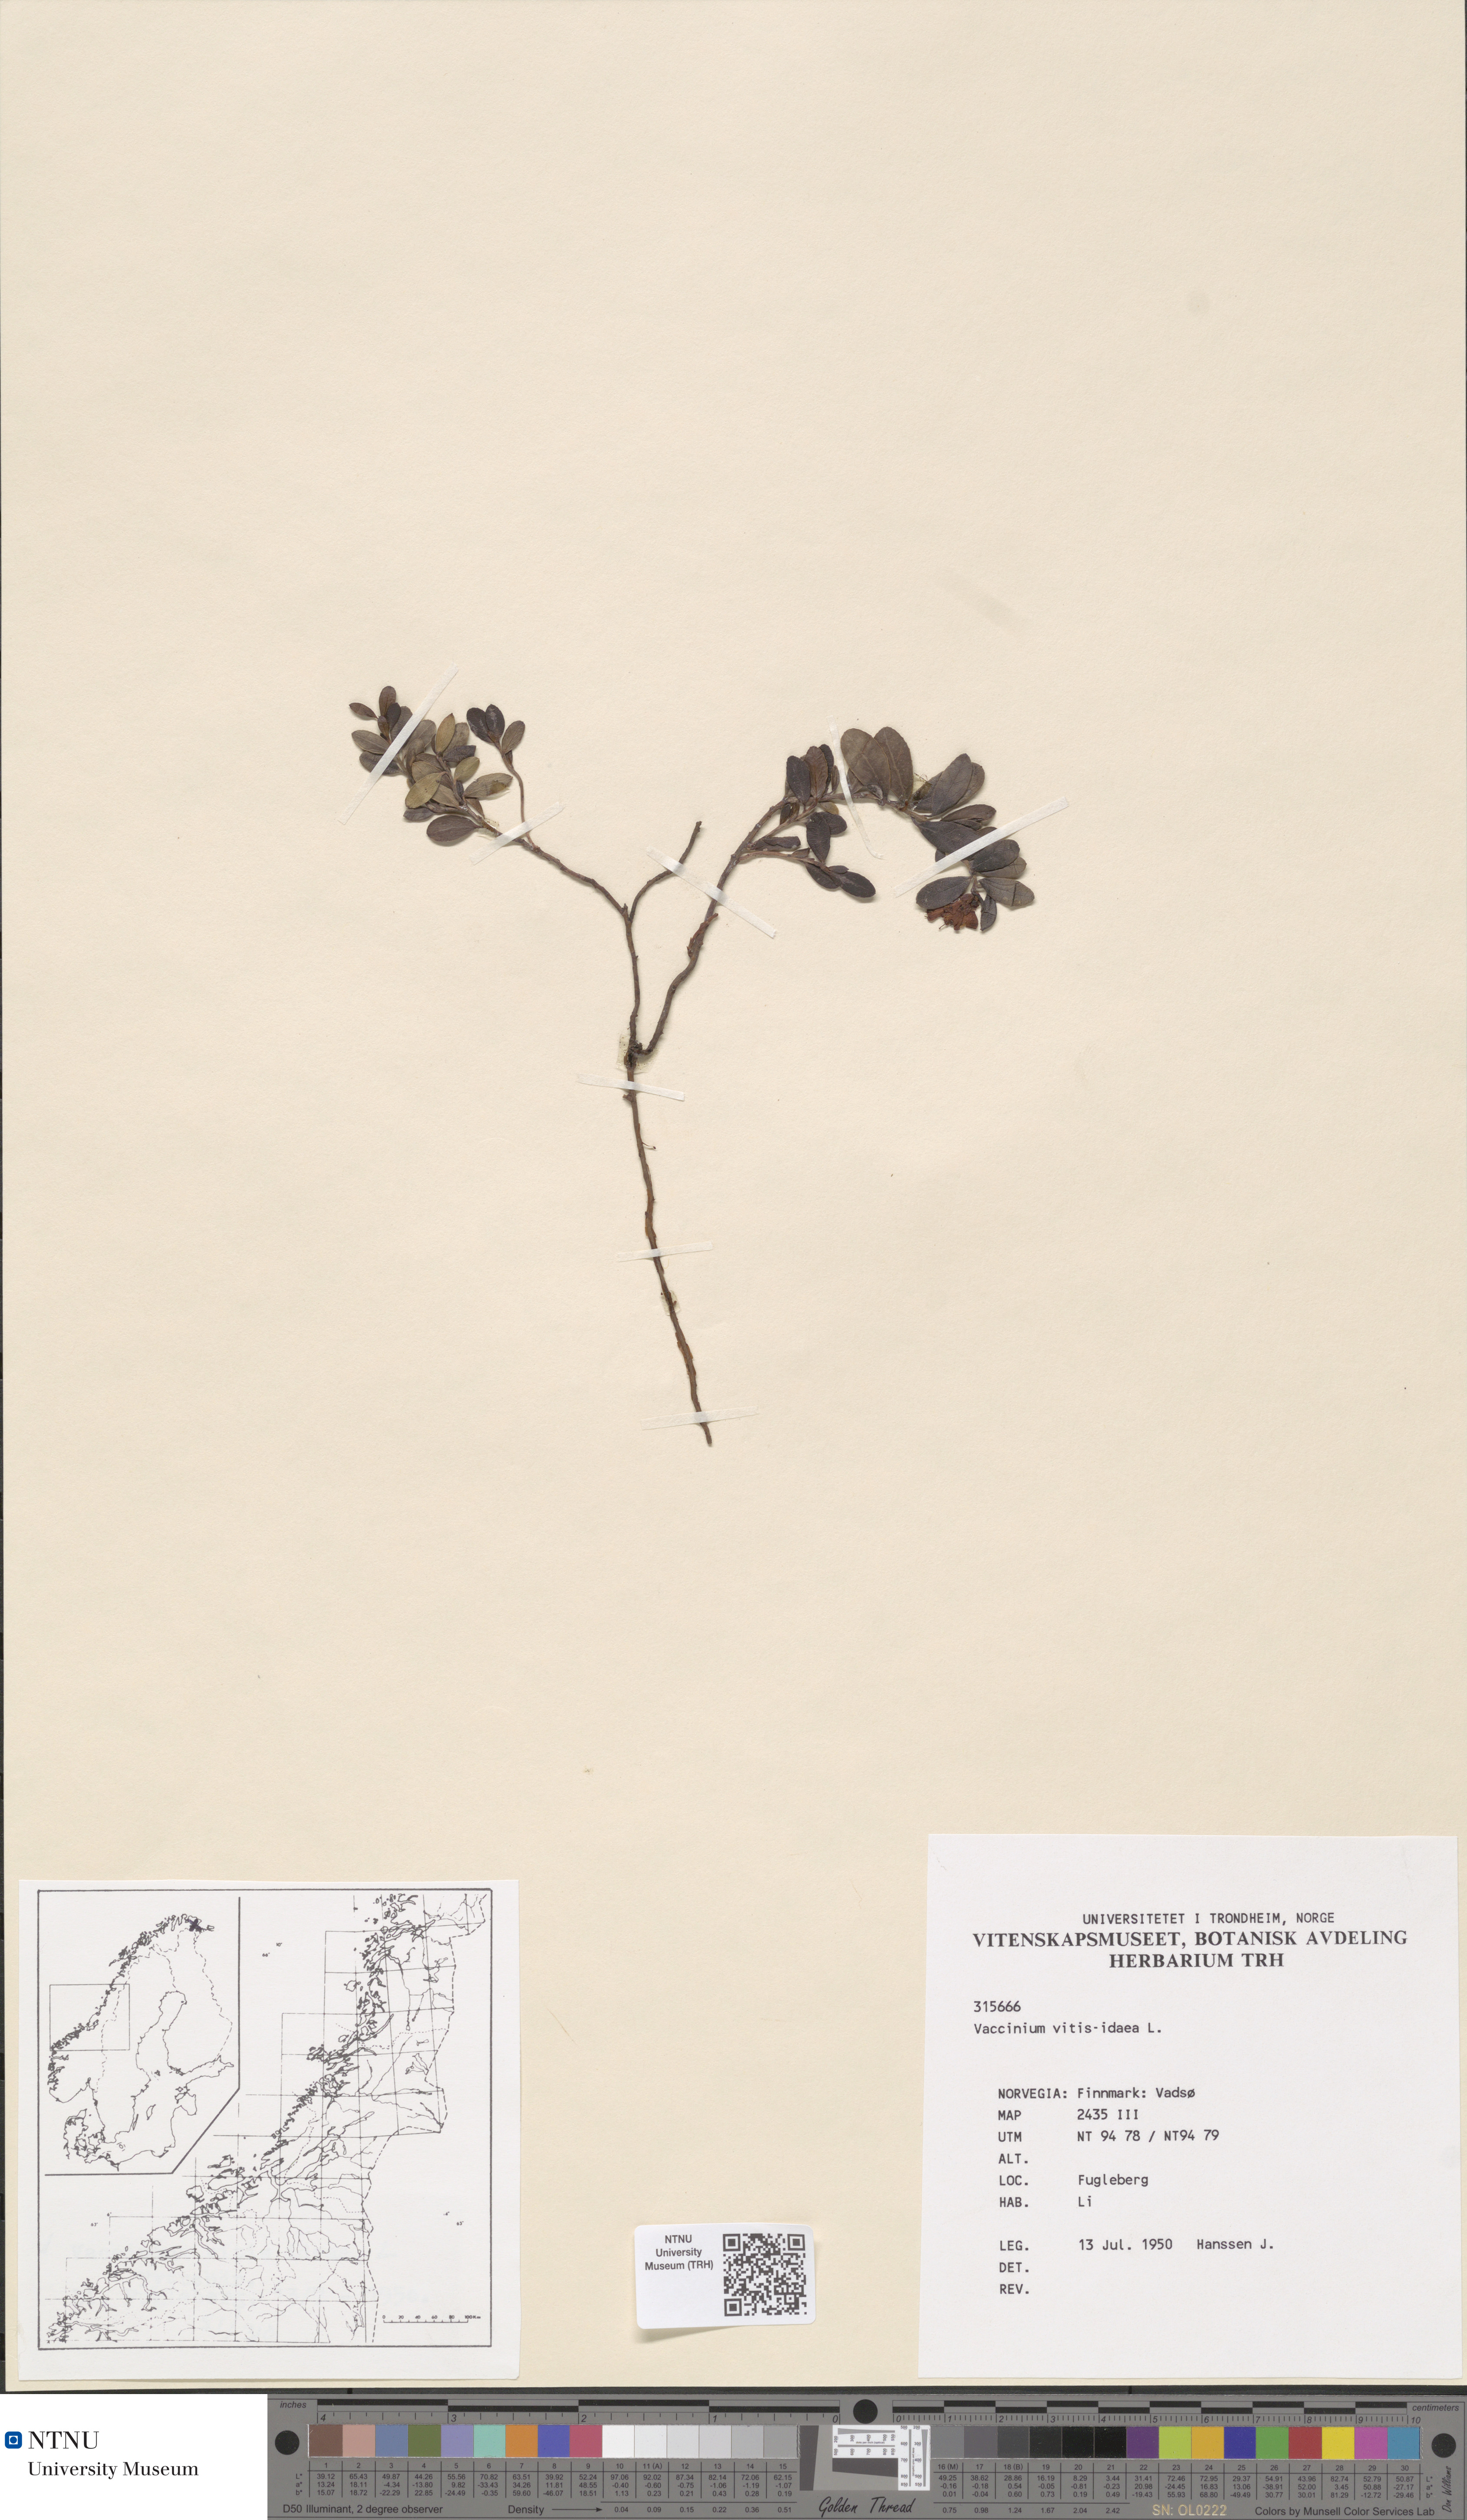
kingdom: Plantae
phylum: Tracheophyta
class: Magnoliopsida
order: Ericales
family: Ericaceae
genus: Vaccinium
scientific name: Vaccinium vitis-idaea
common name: Cowberry
